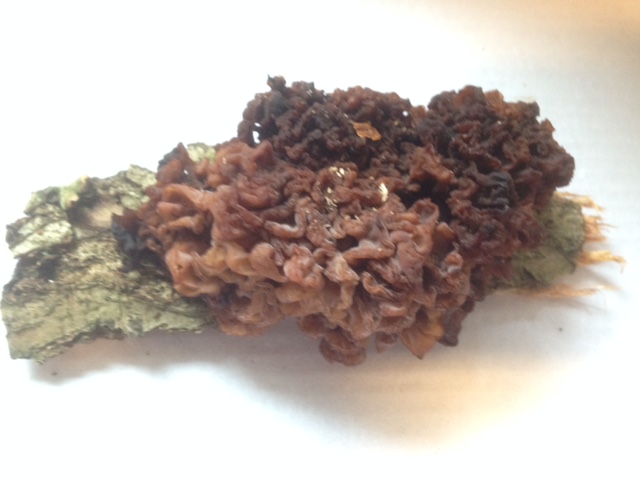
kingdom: Fungi
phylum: Basidiomycota
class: Tremellomycetes
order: Tremellales
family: Tremellaceae
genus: Phaeotremella
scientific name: Phaeotremella frondosa
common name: kæmpe-bævresvamp
